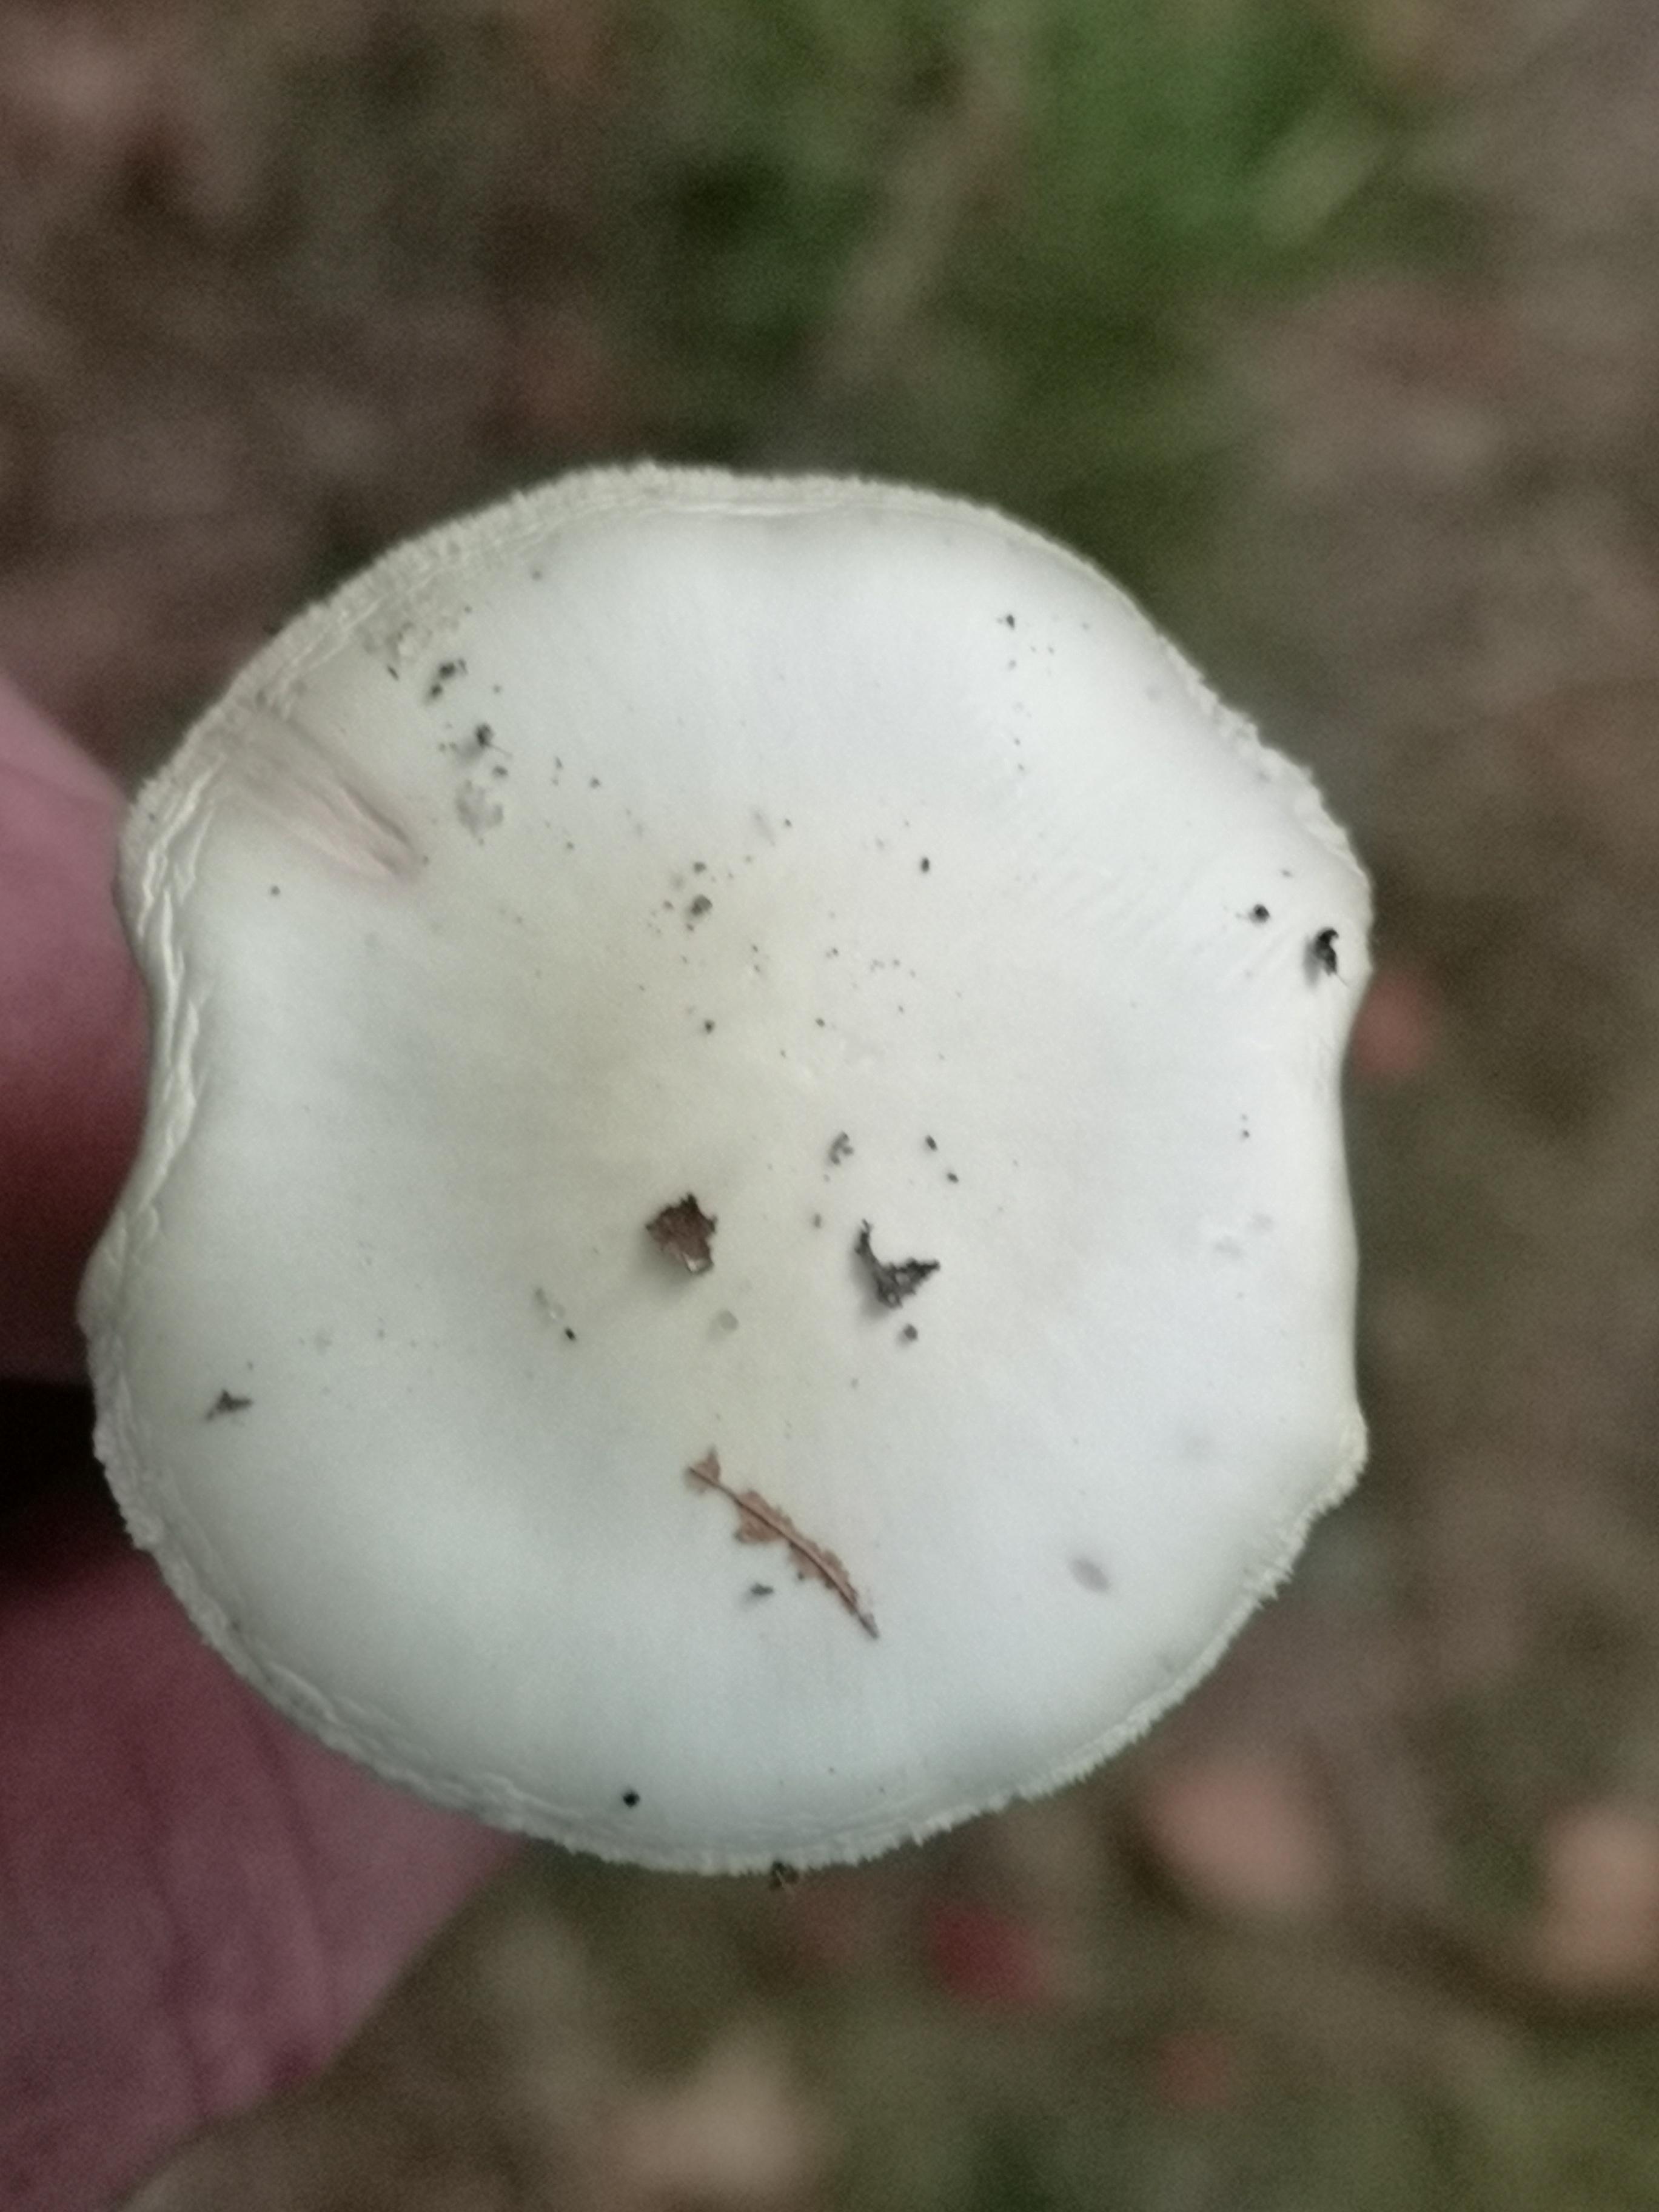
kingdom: Fungi
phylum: Basidiomycota
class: Agaricomycetes
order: Agaricales
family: Amanitaceae
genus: Amanita
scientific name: Amanita citrina
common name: kugleknoldet fluesvamp
